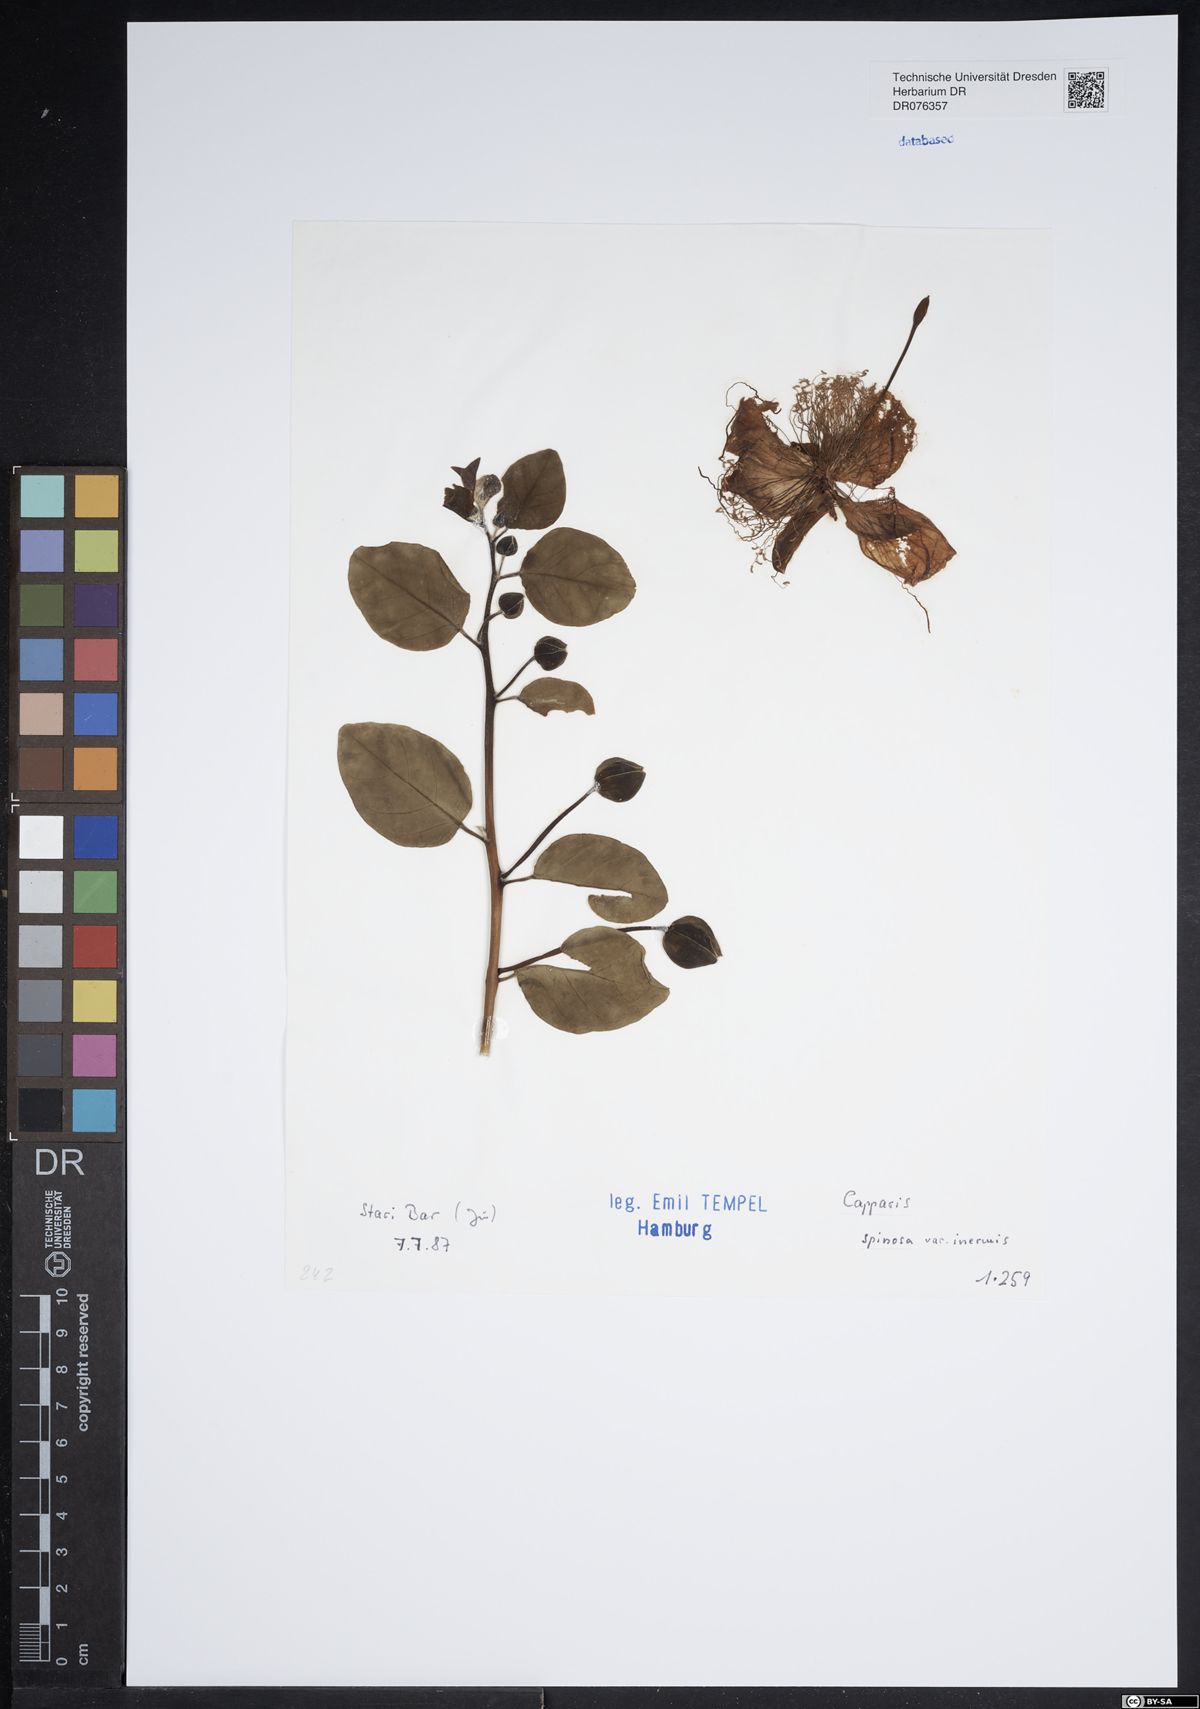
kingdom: Plantae
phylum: Tracheophyta
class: Magnoliopsida
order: Brassicales
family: Capparaceae
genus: Capparis
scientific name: Capparis spinosa
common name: Caper
